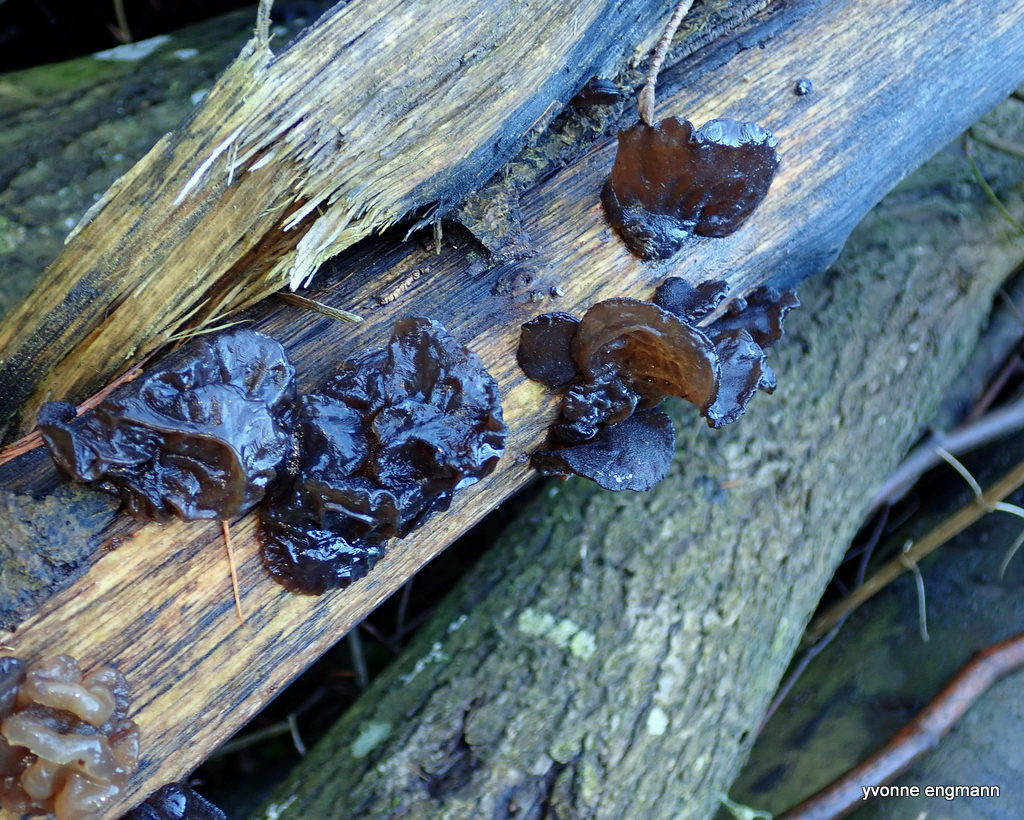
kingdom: Fungi
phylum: Basidiomycota
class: Agaricomycetes
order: Auriculariales
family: Auriculariaceae
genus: Exidia
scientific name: Exidia glandulosa
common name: ege-bævretop
